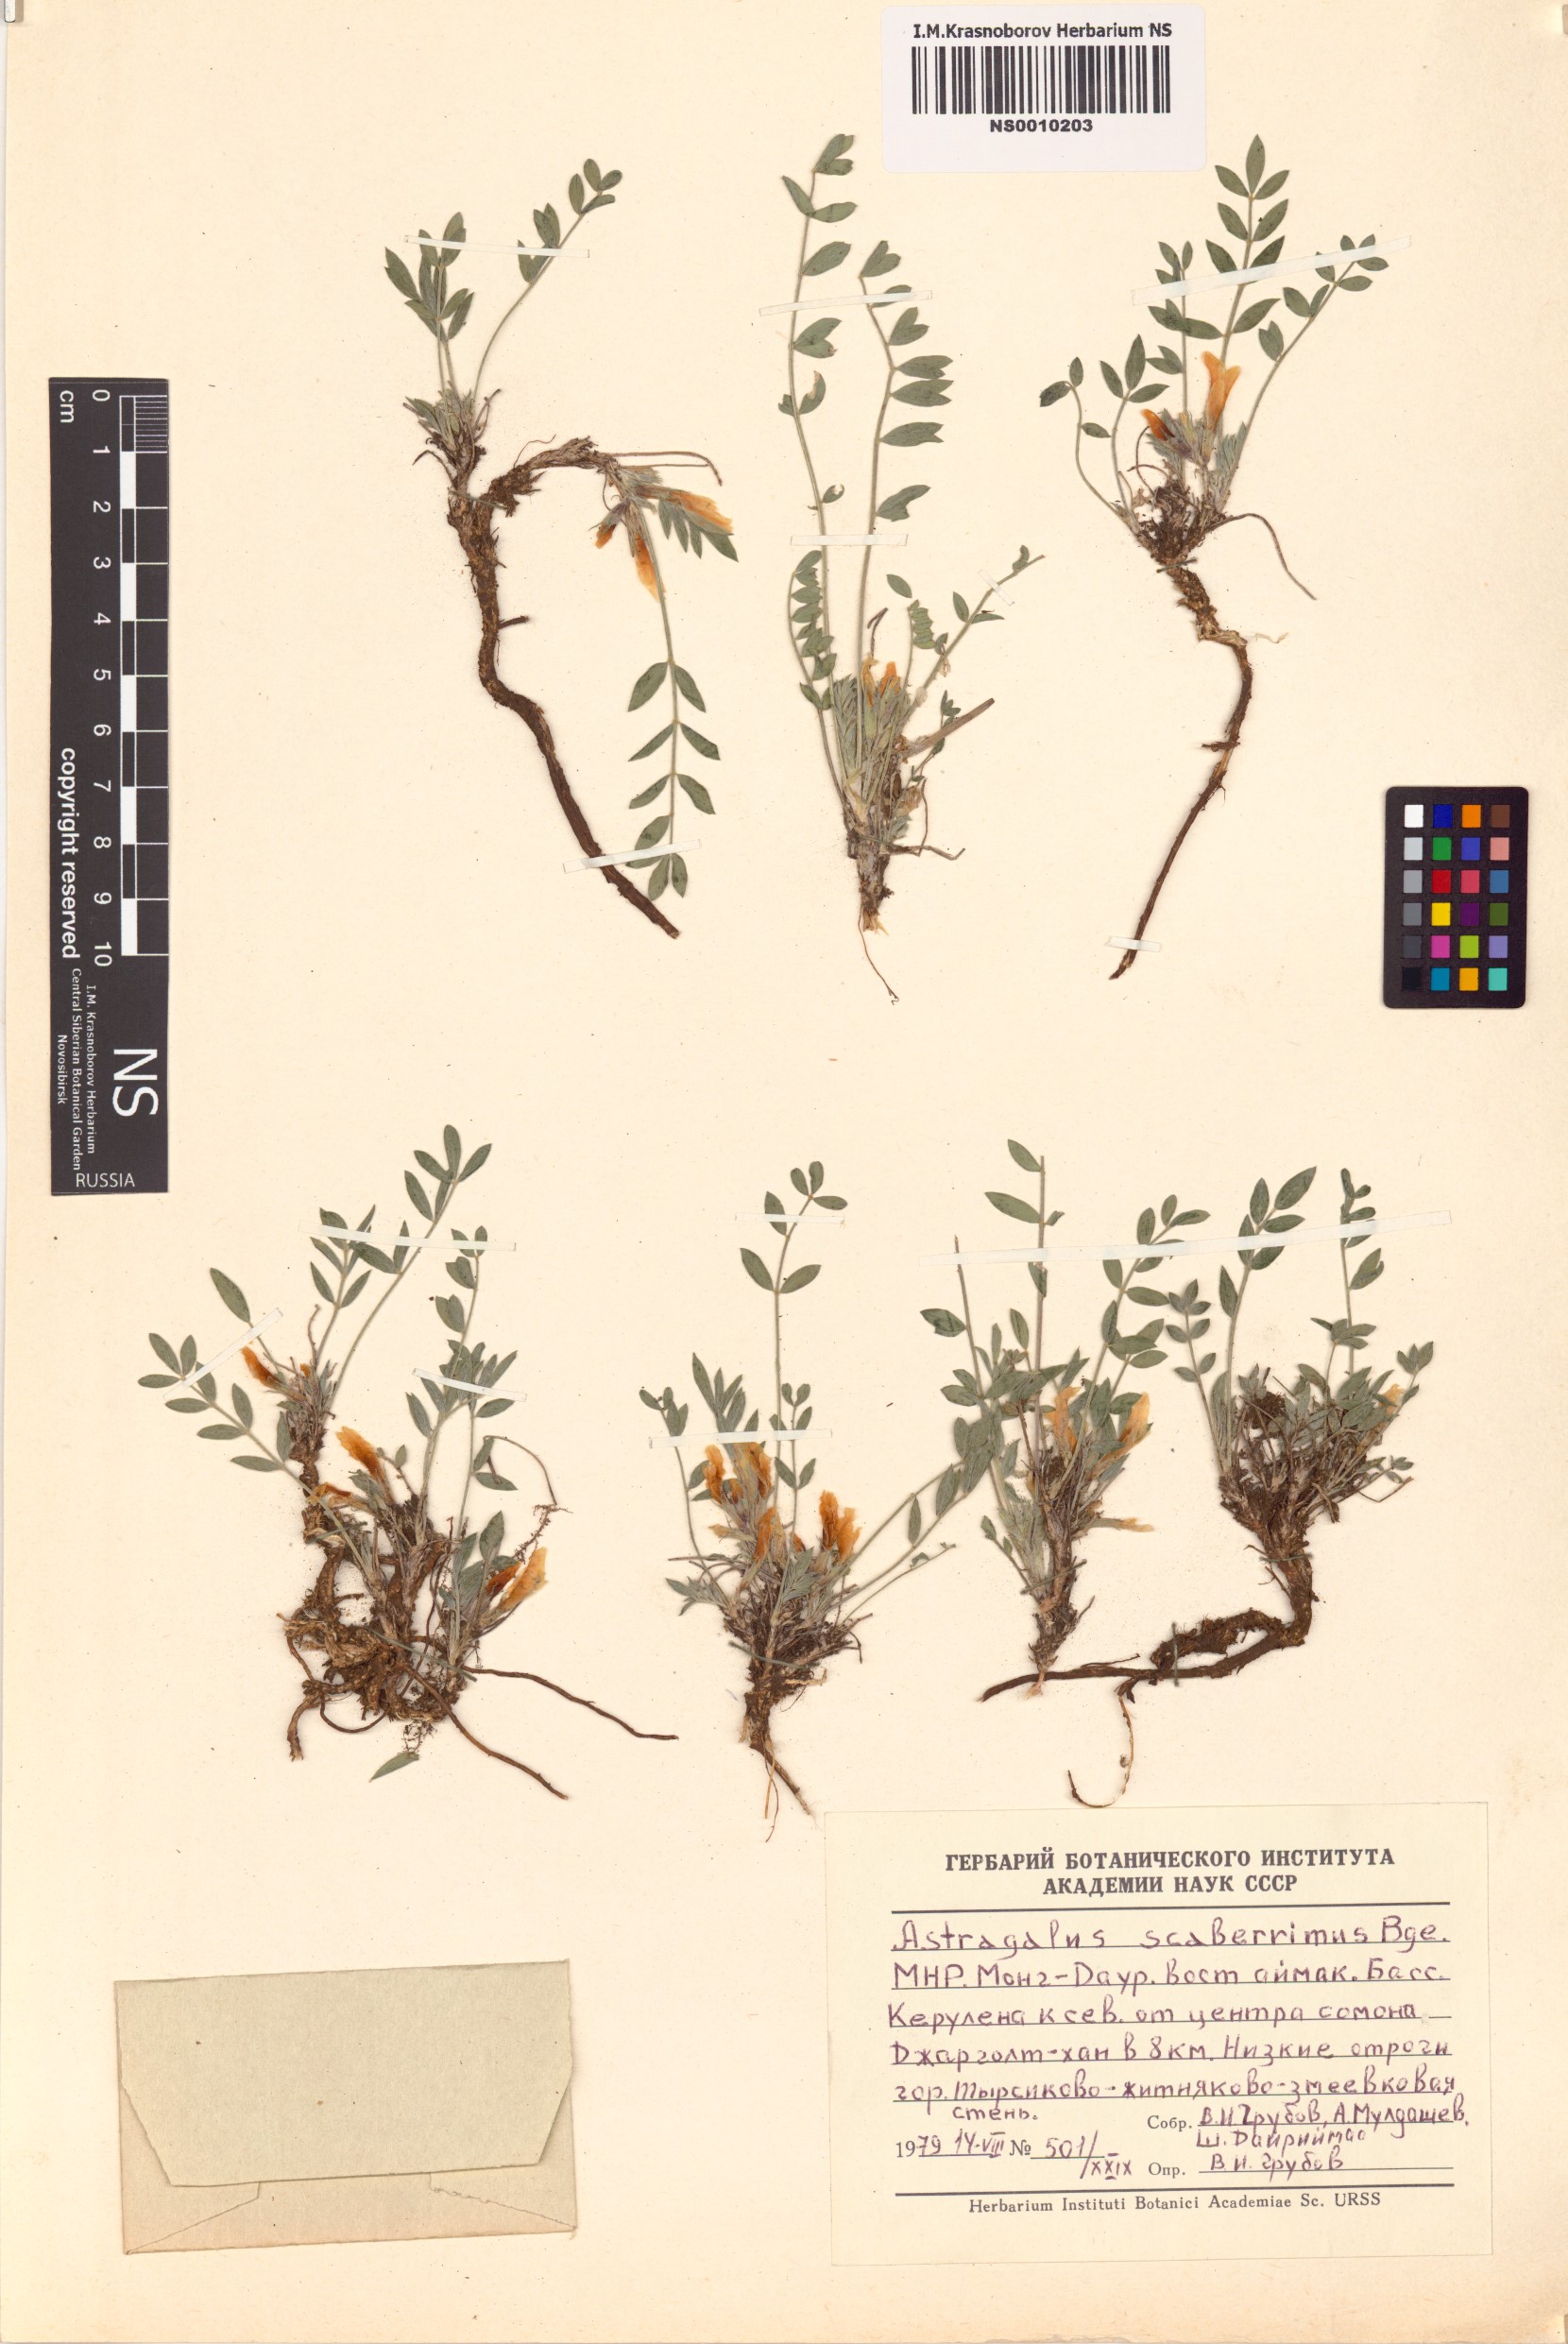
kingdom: Plantae
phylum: Tracheophyta
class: Magnoliopsida
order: Fabales
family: Fabaceae
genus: Astragalus
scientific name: Astragalus scaberrimus
